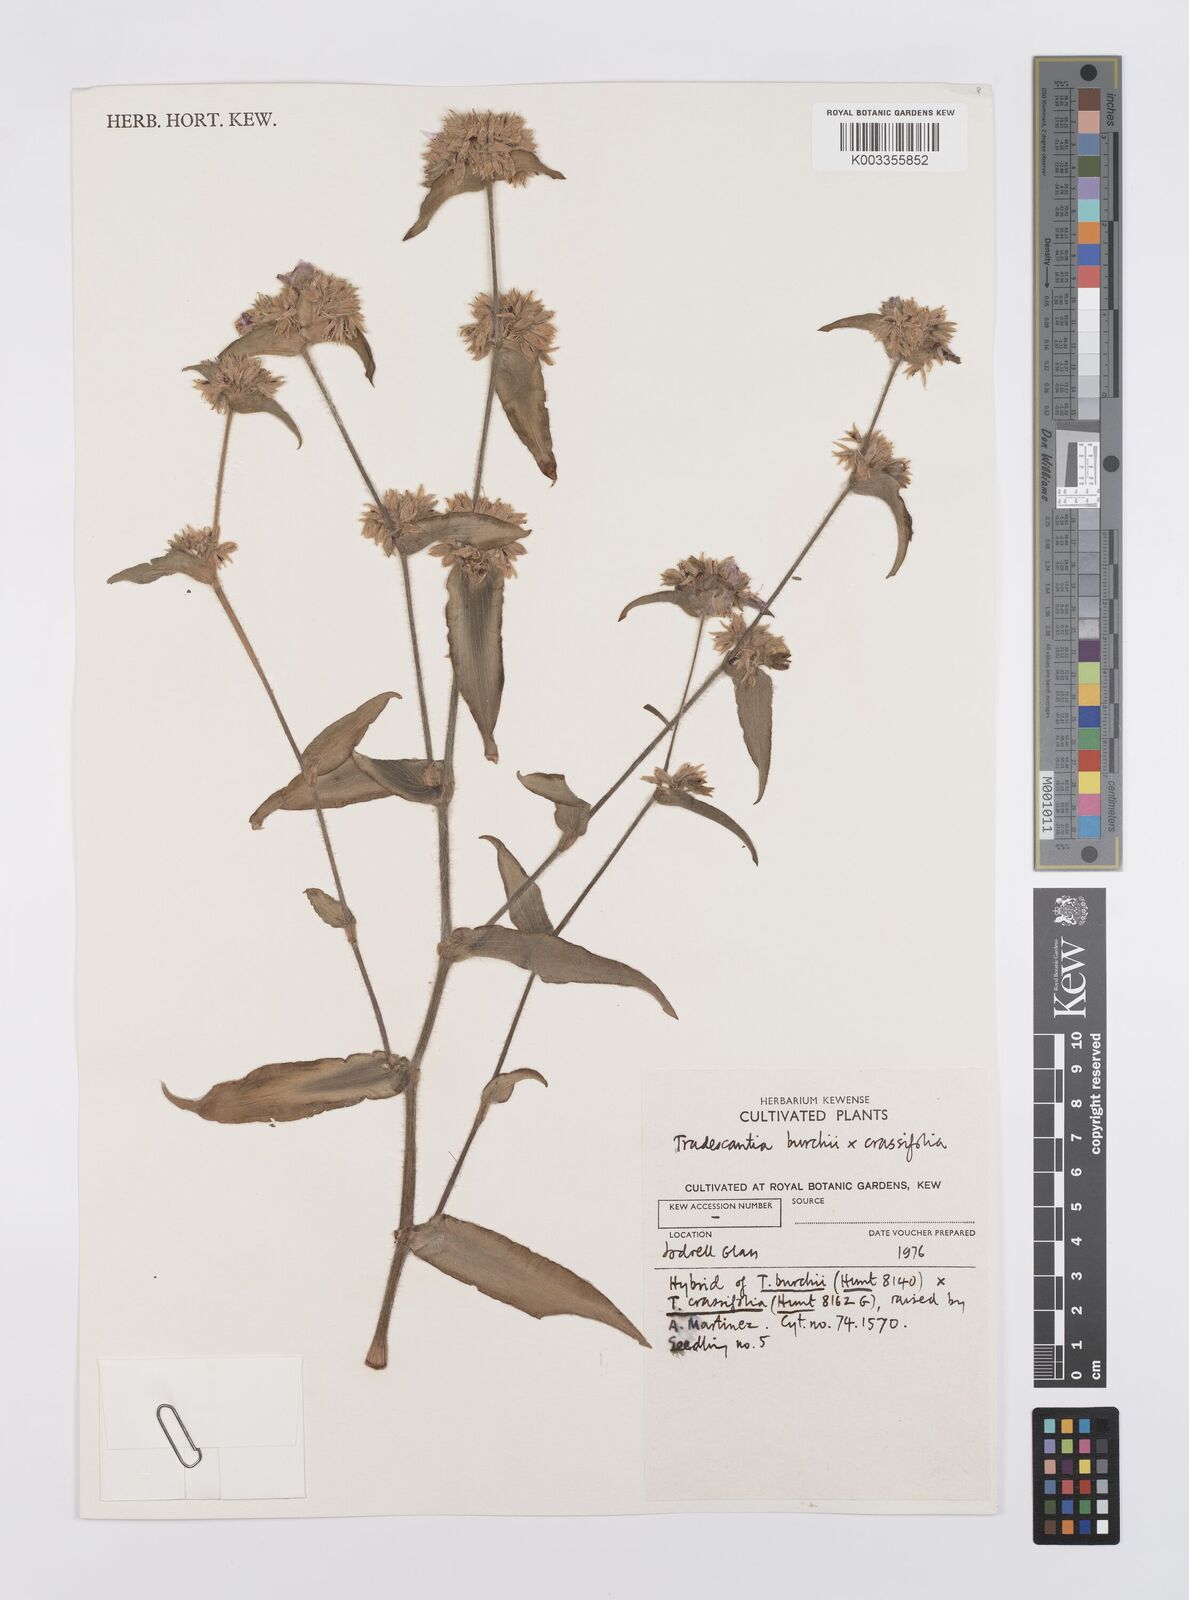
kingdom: Plantae
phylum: Tracheophyta
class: Liliopsida
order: Commelinales
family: Commelinaceae
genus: Tradescantia
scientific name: Tradescantia burchii
